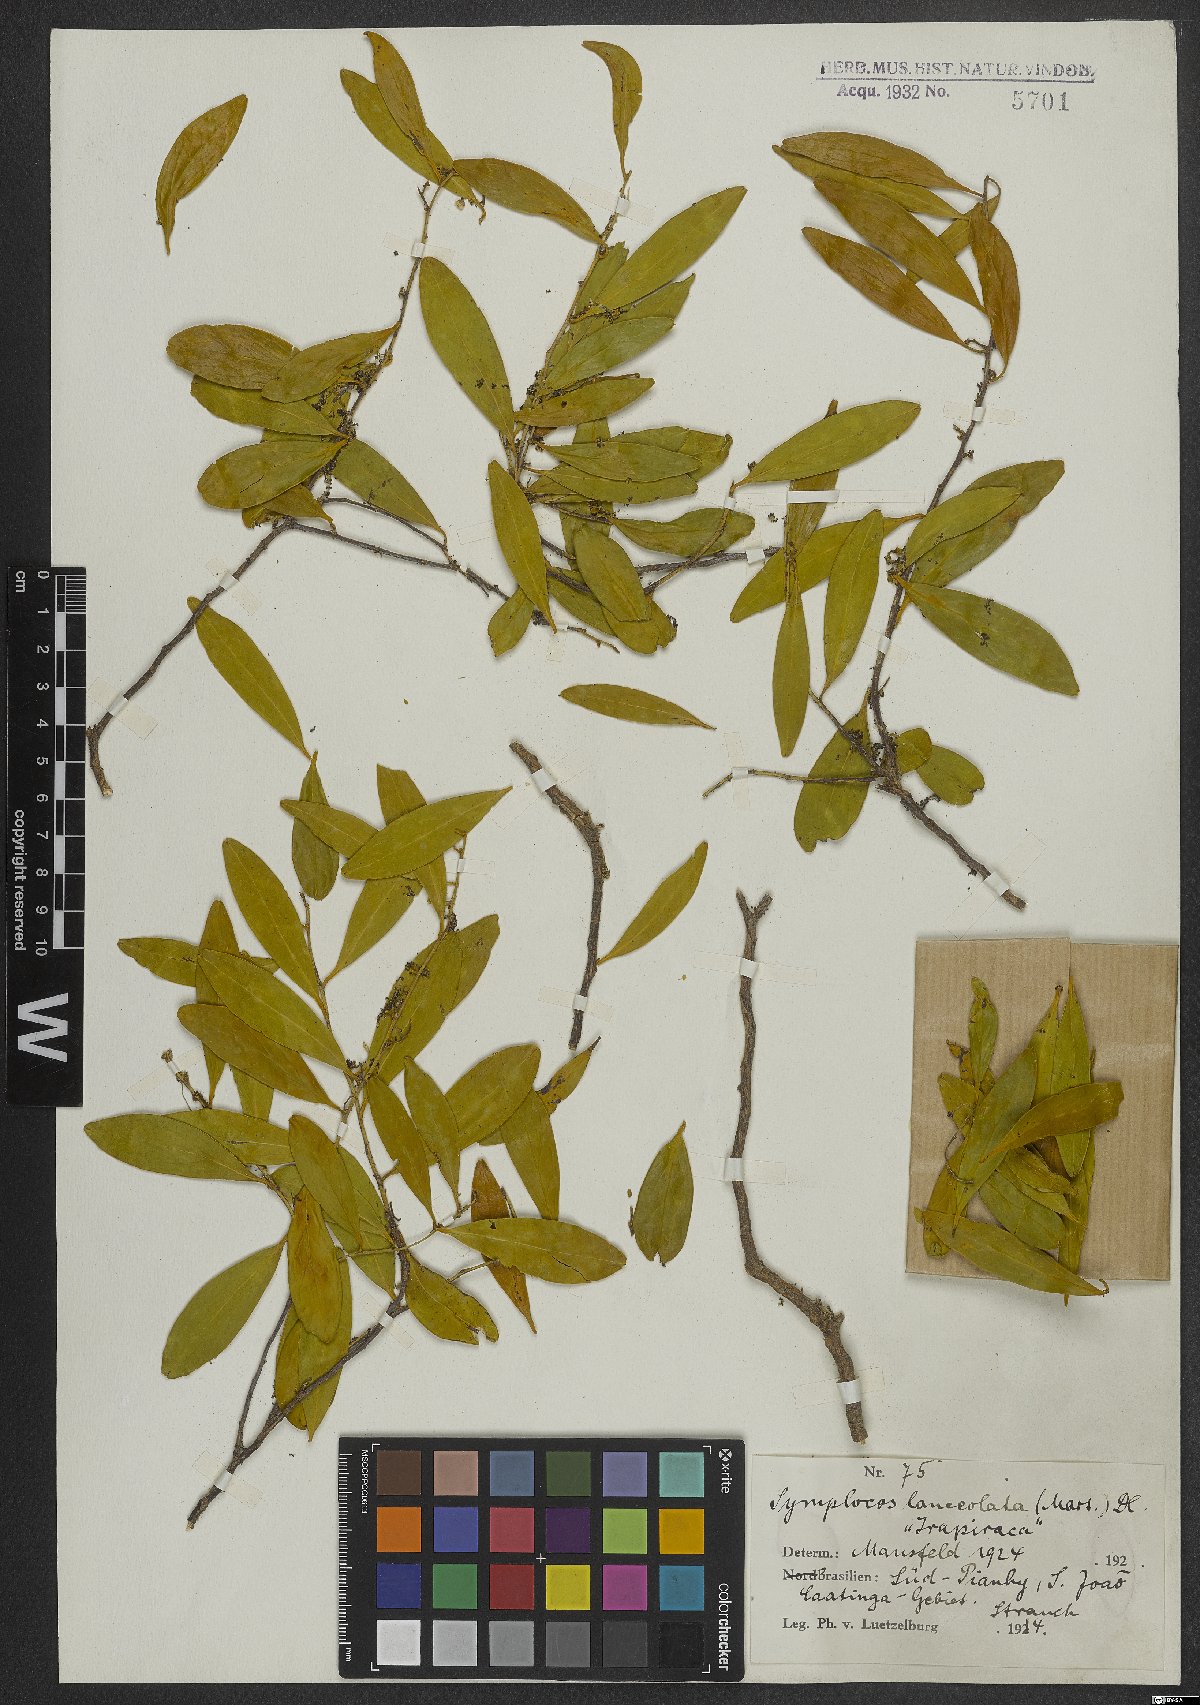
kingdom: Plantae
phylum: Tracheophyta
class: Magnoliopsida
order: Ericales
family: Symplocaceae
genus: Symplocos
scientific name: Symplocos oblongifolia
